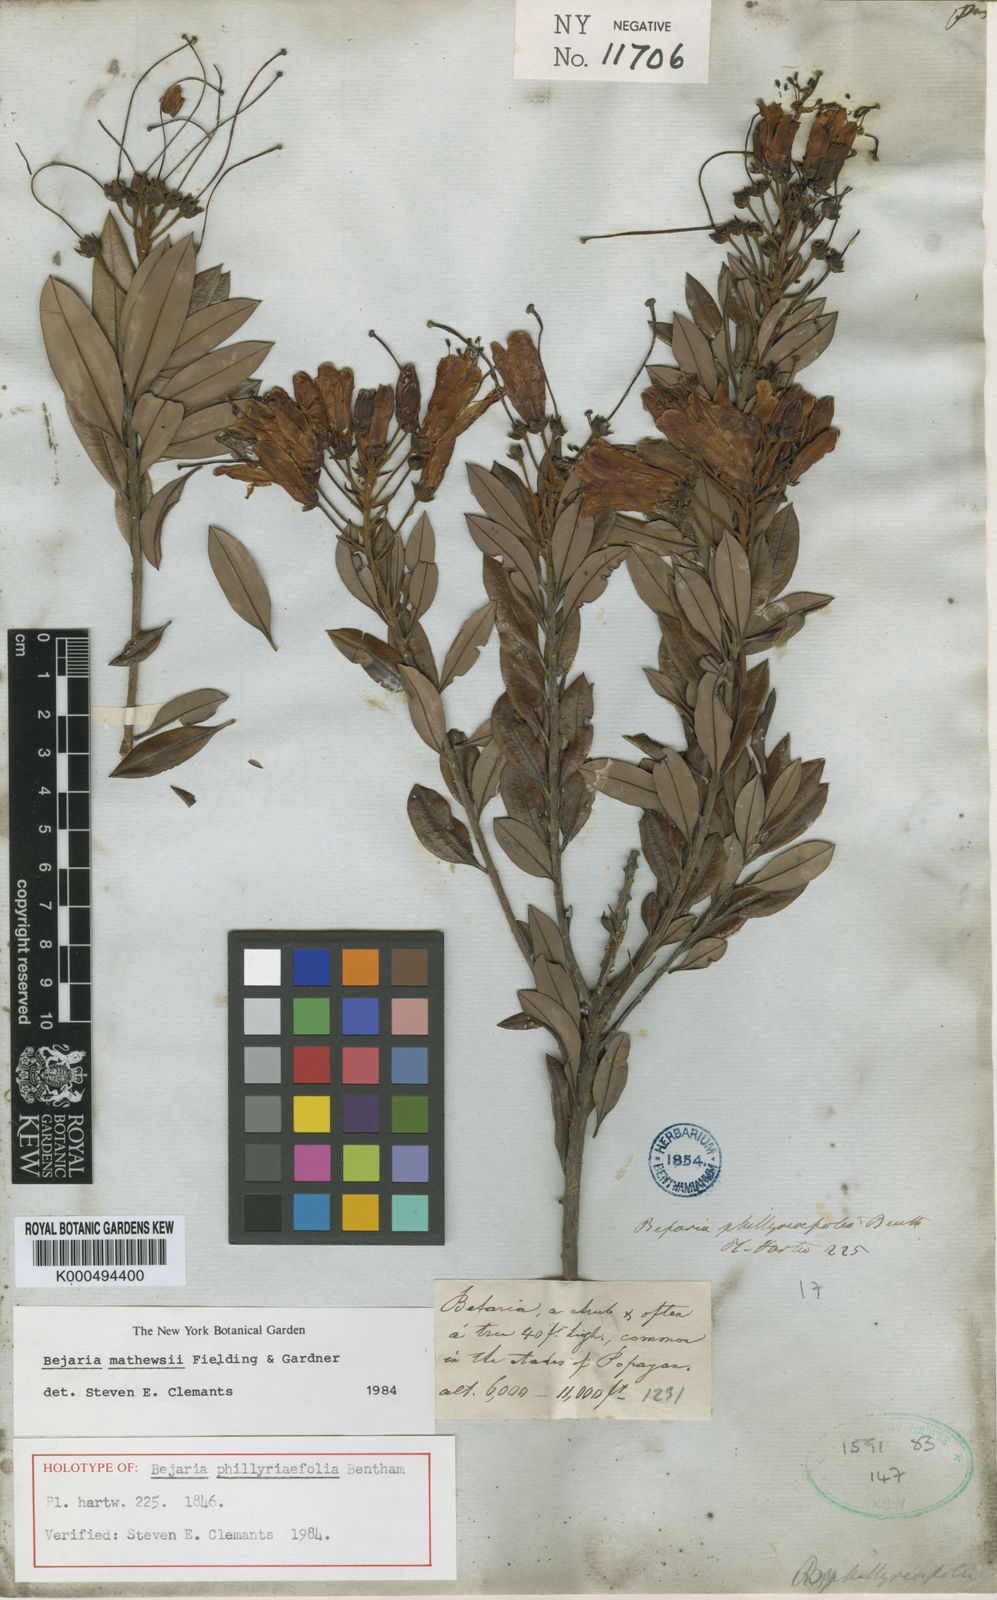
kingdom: Plantae
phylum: Tracheophyta
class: Magnoliopsida
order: Ericales
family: Ericaceae
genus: Bejaria
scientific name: Bejaria mathewsii
